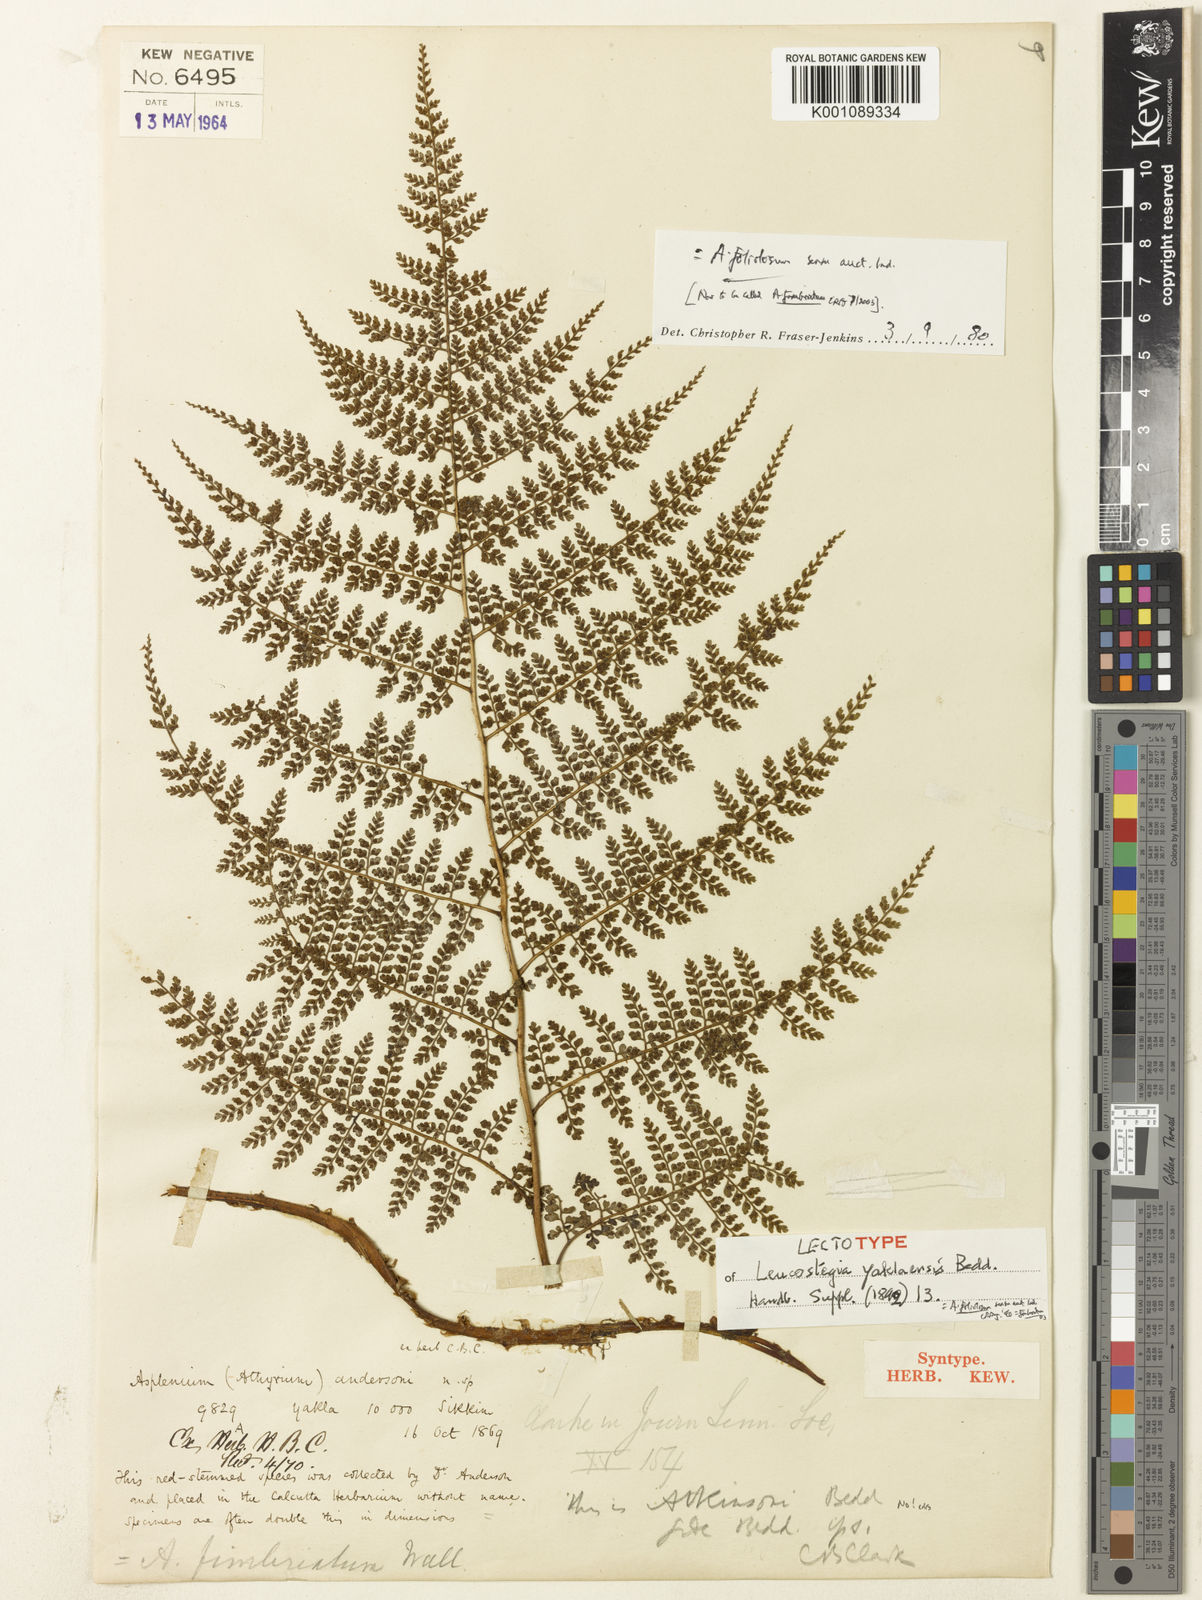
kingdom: Plantae
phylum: Tracheophyta
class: Polypodiopsida
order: Polypodiales
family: Athyriaceae
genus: Athyrium
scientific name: Athyrium
